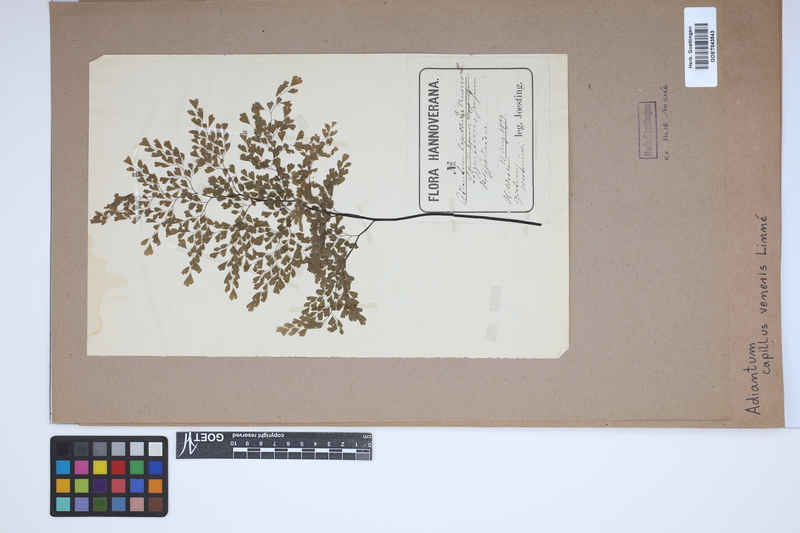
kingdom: Plantae
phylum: Tracheophyta
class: Polypodiopsida
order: Polypodiales
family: Pteridaceae
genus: Adiantum
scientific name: Adiantum capillus-veneris
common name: Maidenhair fern
